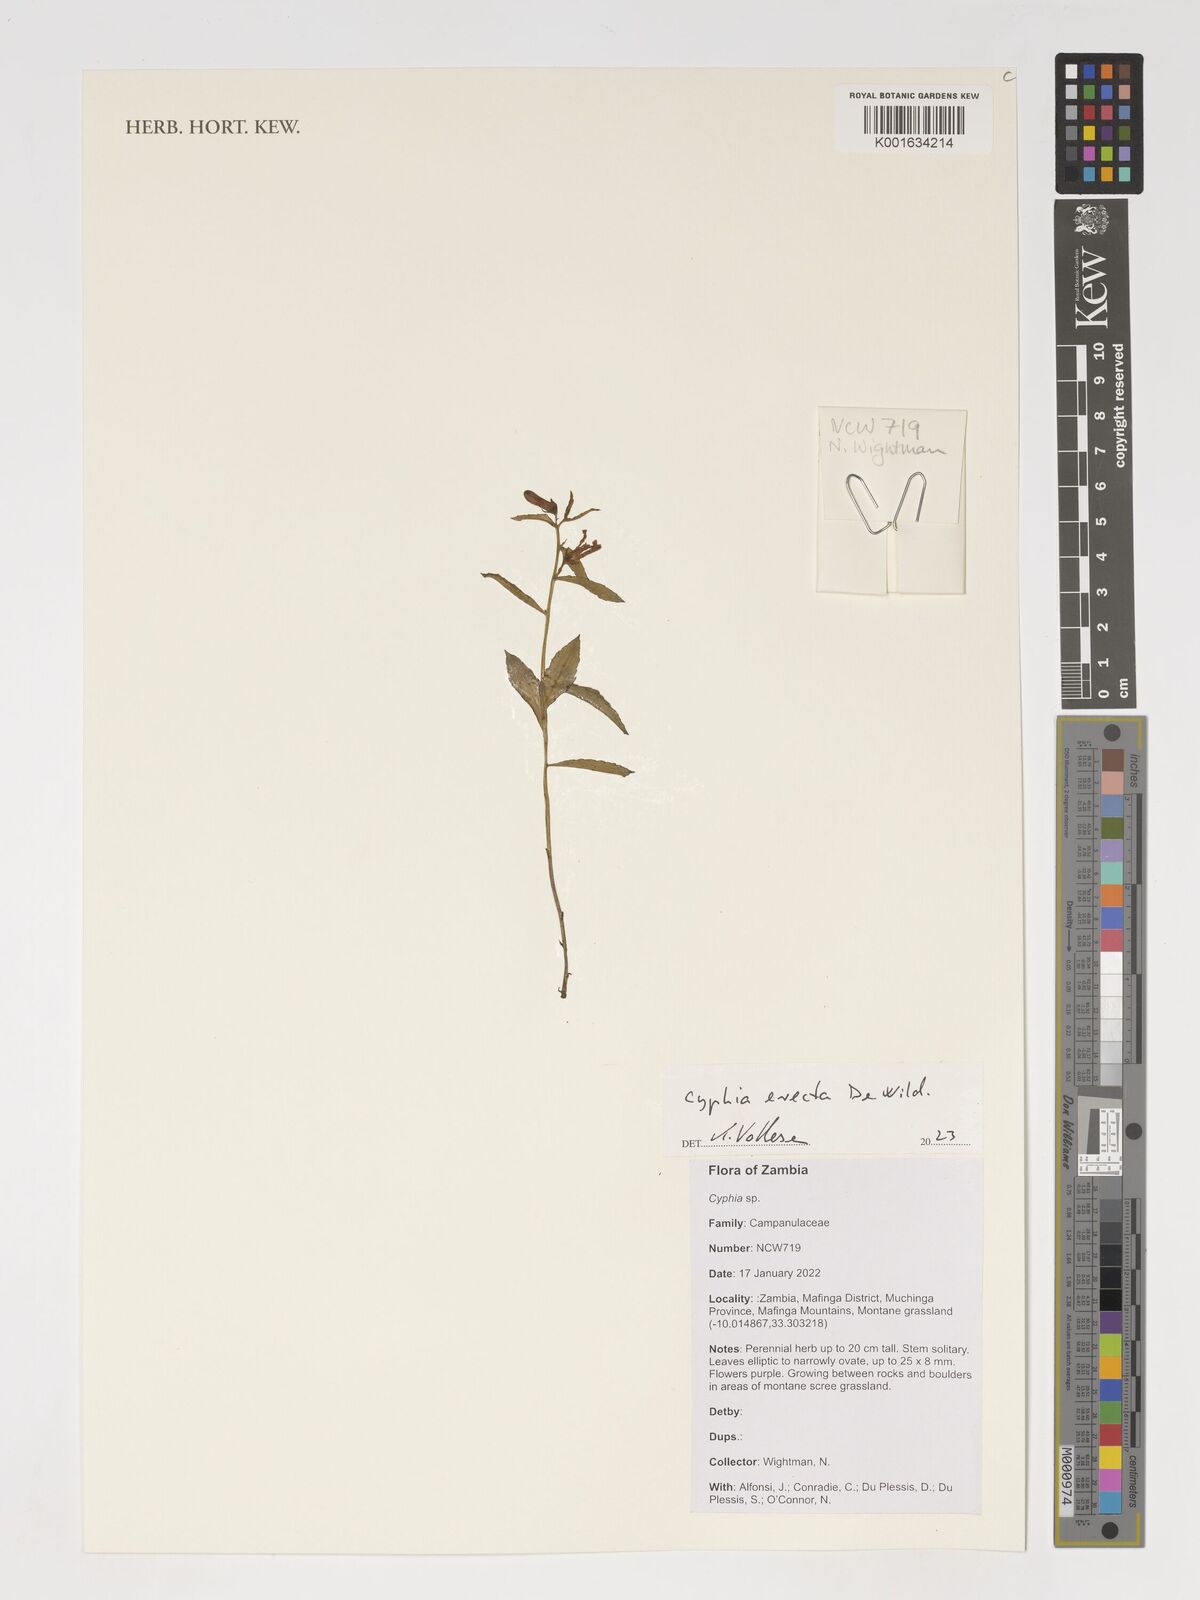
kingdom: Plantae
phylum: Tracheophyta
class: Magnoliopsida
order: Asterales
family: Campanulaceae
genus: Cyphia
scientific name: Cyphia erecta
